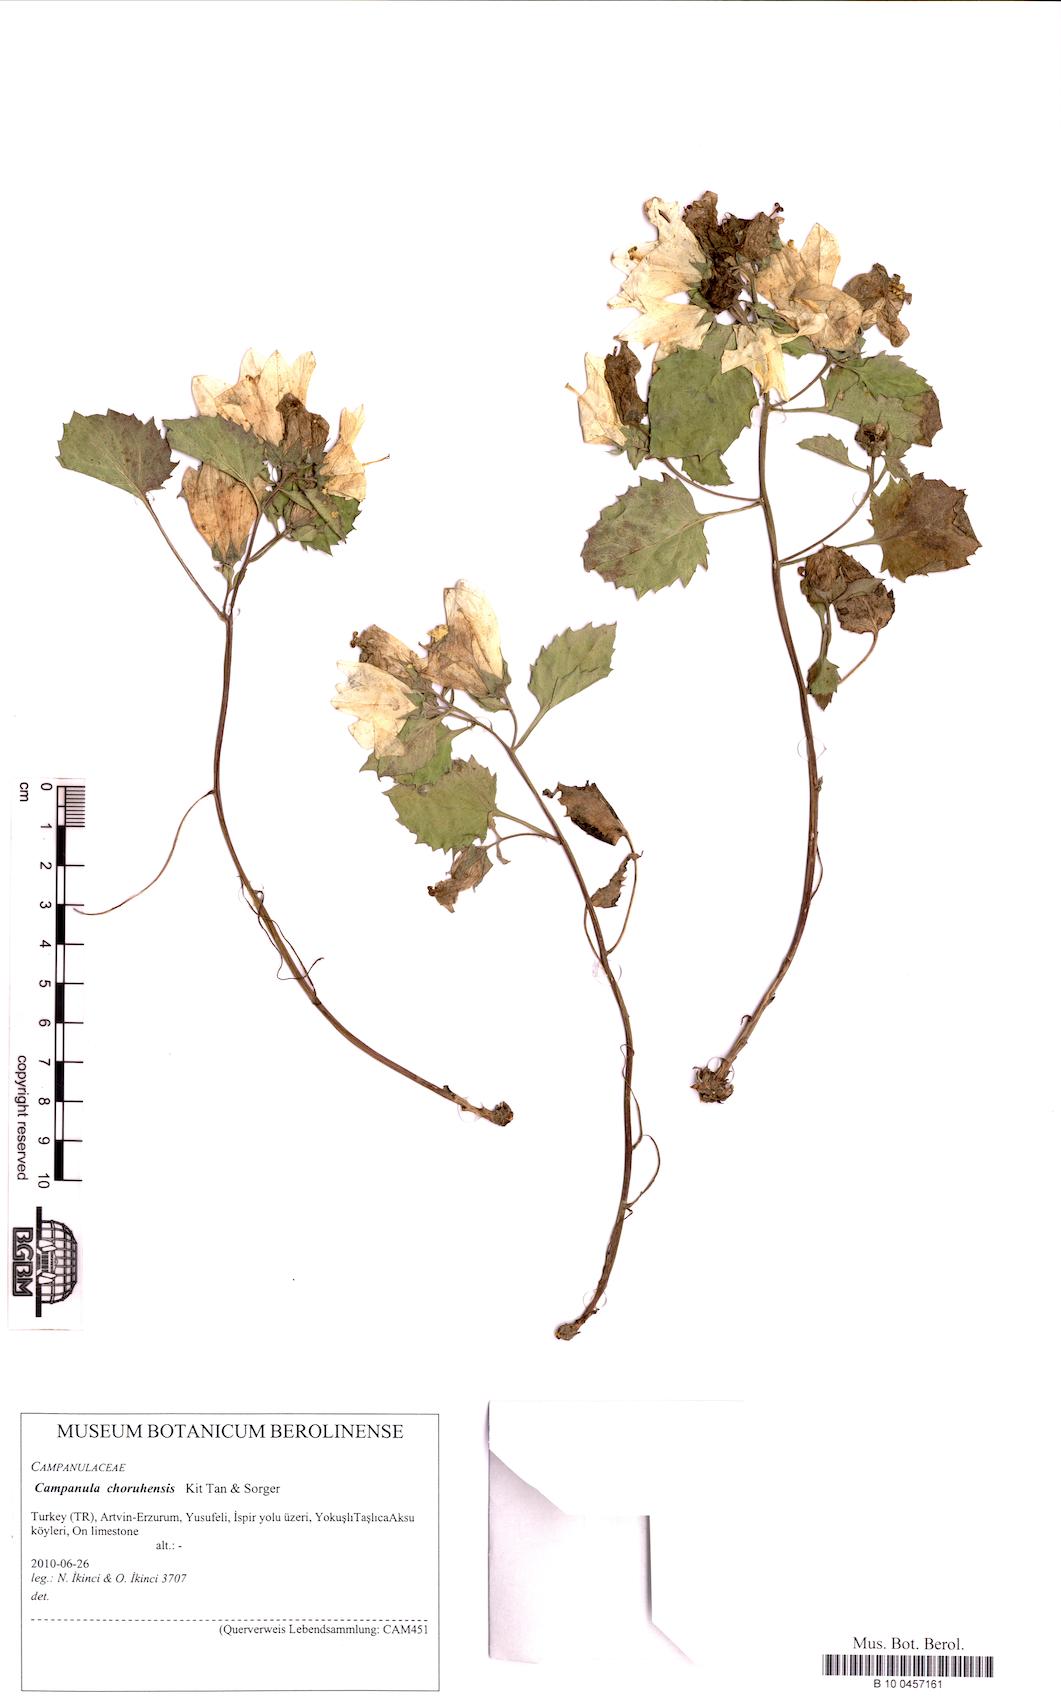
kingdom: Plantae
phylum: Tracheophyta
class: Magnoliopsida
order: Asterales
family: Campanulaceae
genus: Campanula
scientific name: Campanula choruhensis
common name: Choruhian bellflower
